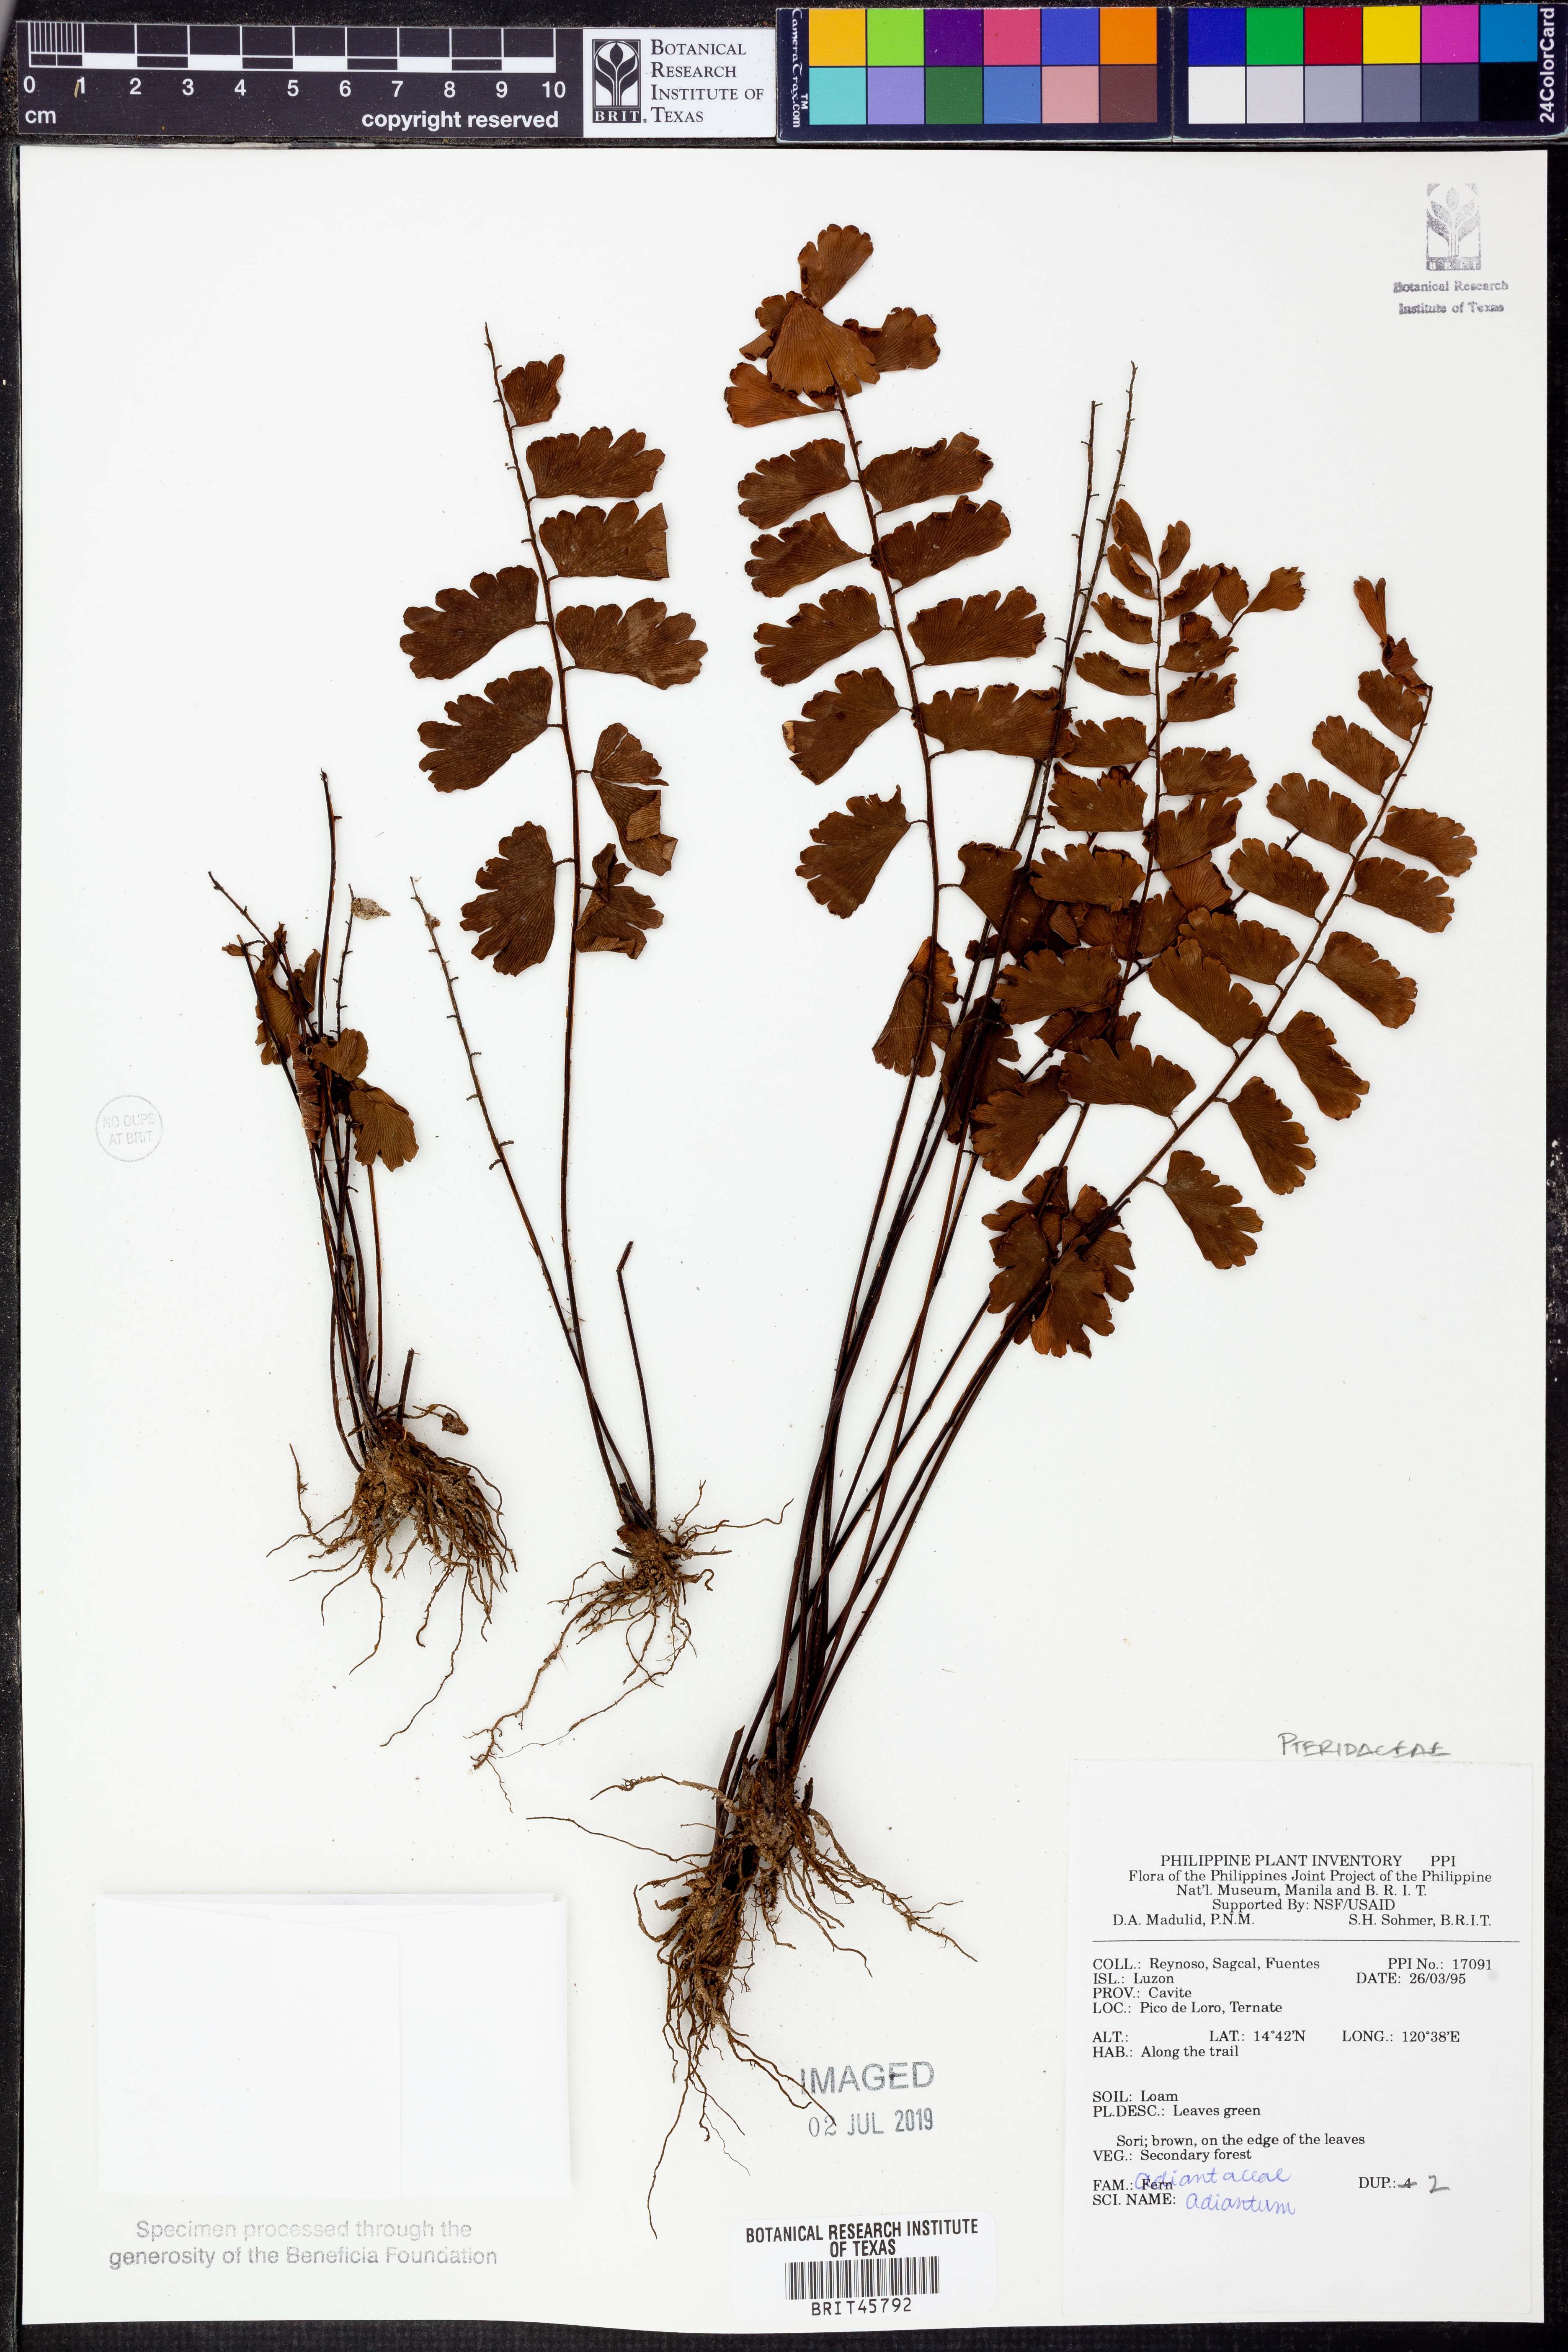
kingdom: Plantae
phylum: Tracheophyta
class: Polypodiopsida
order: Polypodiales
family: Pteridaceae
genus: Adiantum
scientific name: Adiantum
